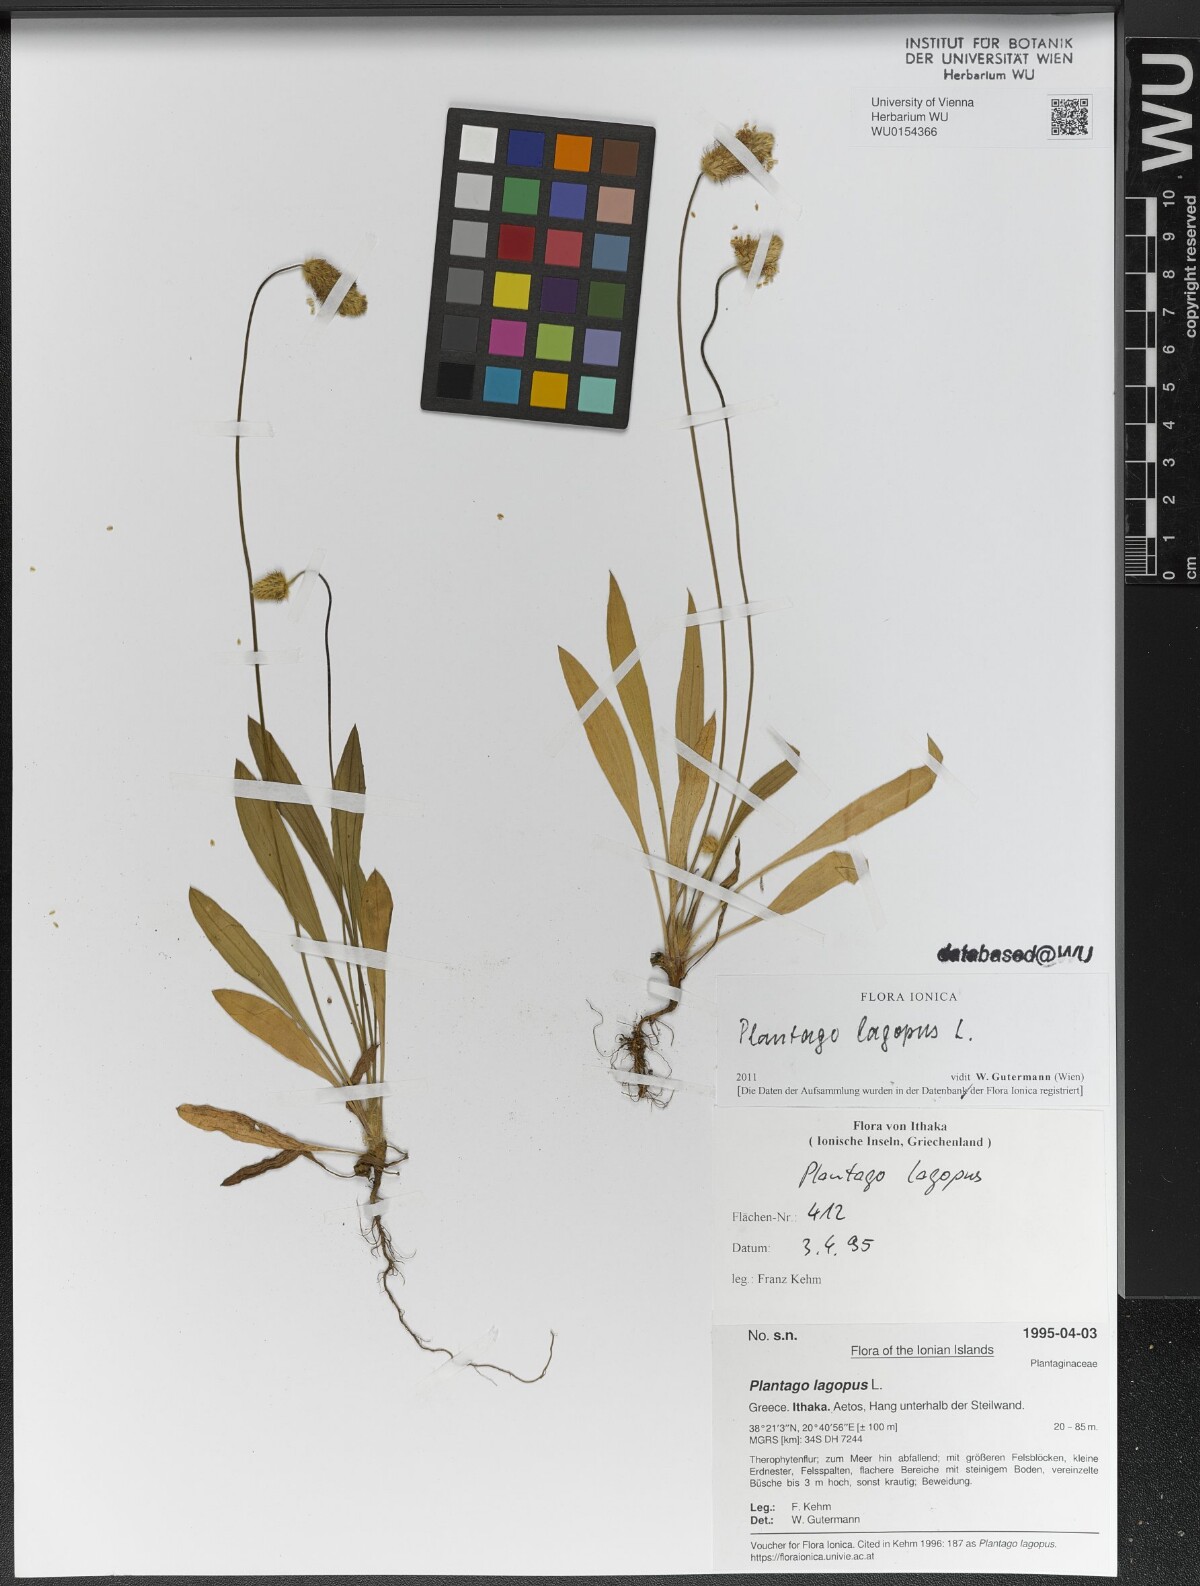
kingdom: Plantae
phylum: Tracheophyta
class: Magnoliopsida
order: Lamiales
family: Plantaginaceae
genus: Plantago
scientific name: Plantago lagopus
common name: Hare-foot plantain
